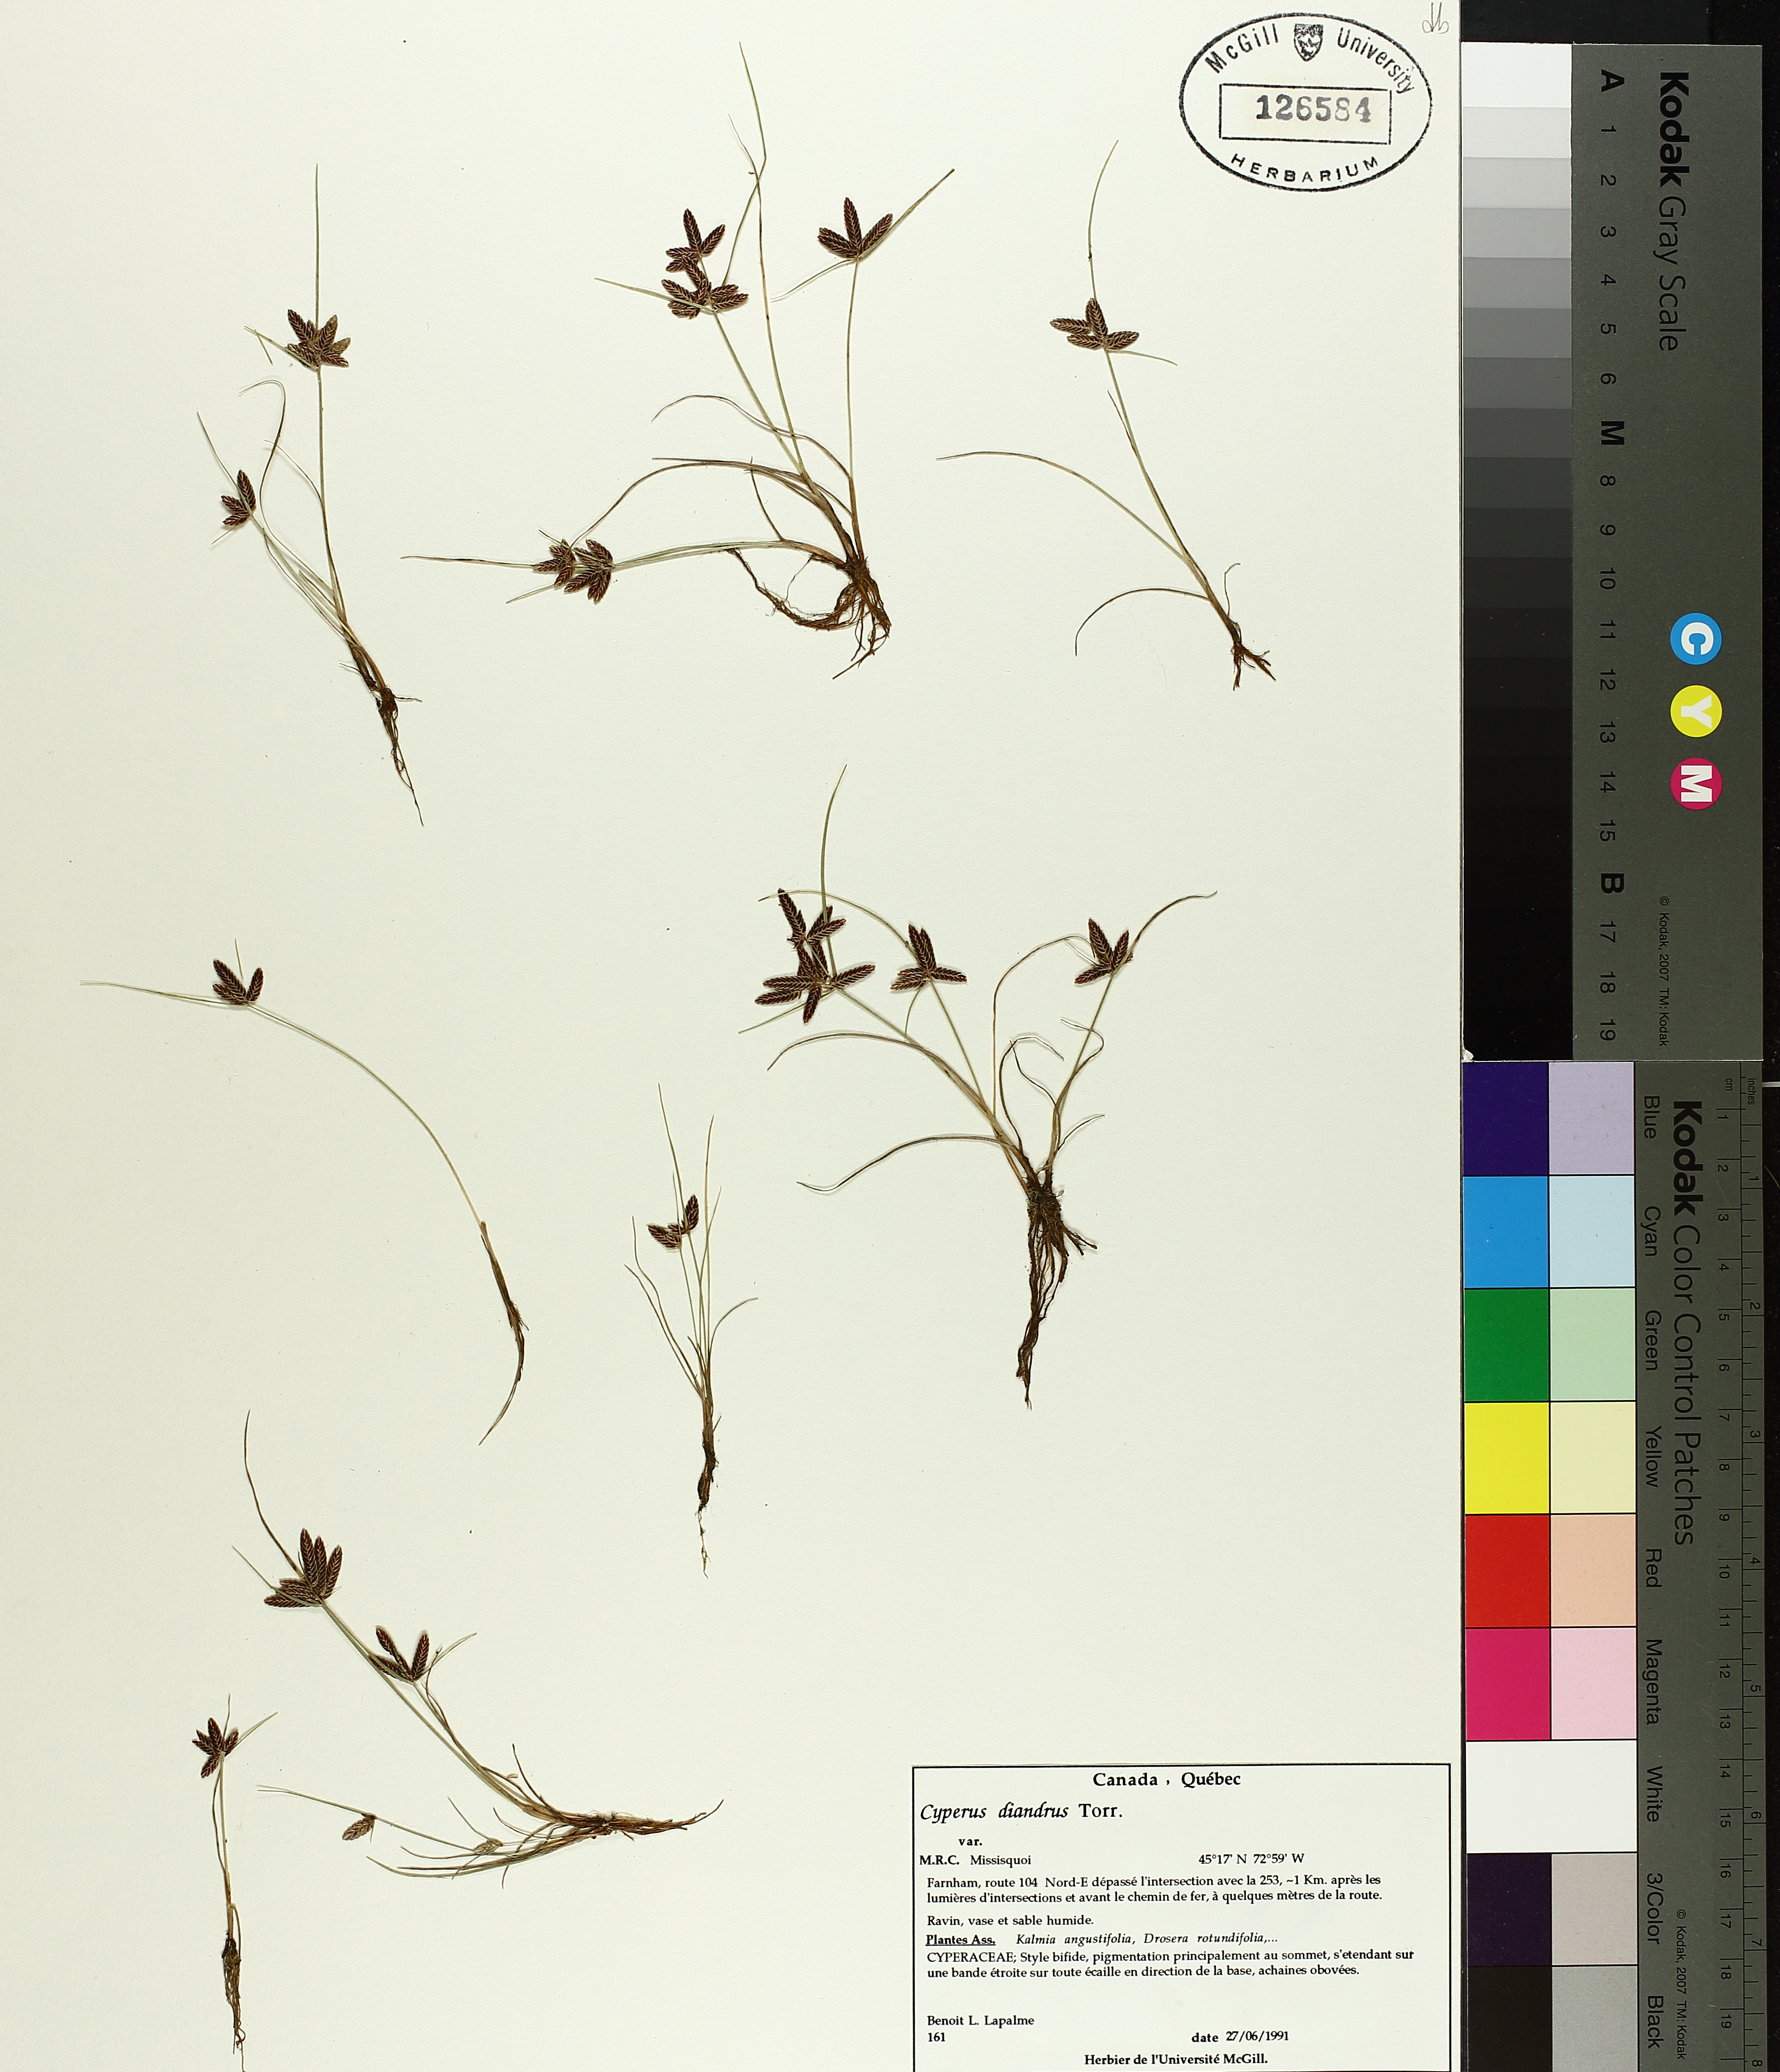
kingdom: Plantae
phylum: Tracheophyta
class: Liliopsida
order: Poales
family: Cyperaceae
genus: Cyperus
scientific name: Cyperus diandrus
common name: Low cyperus
